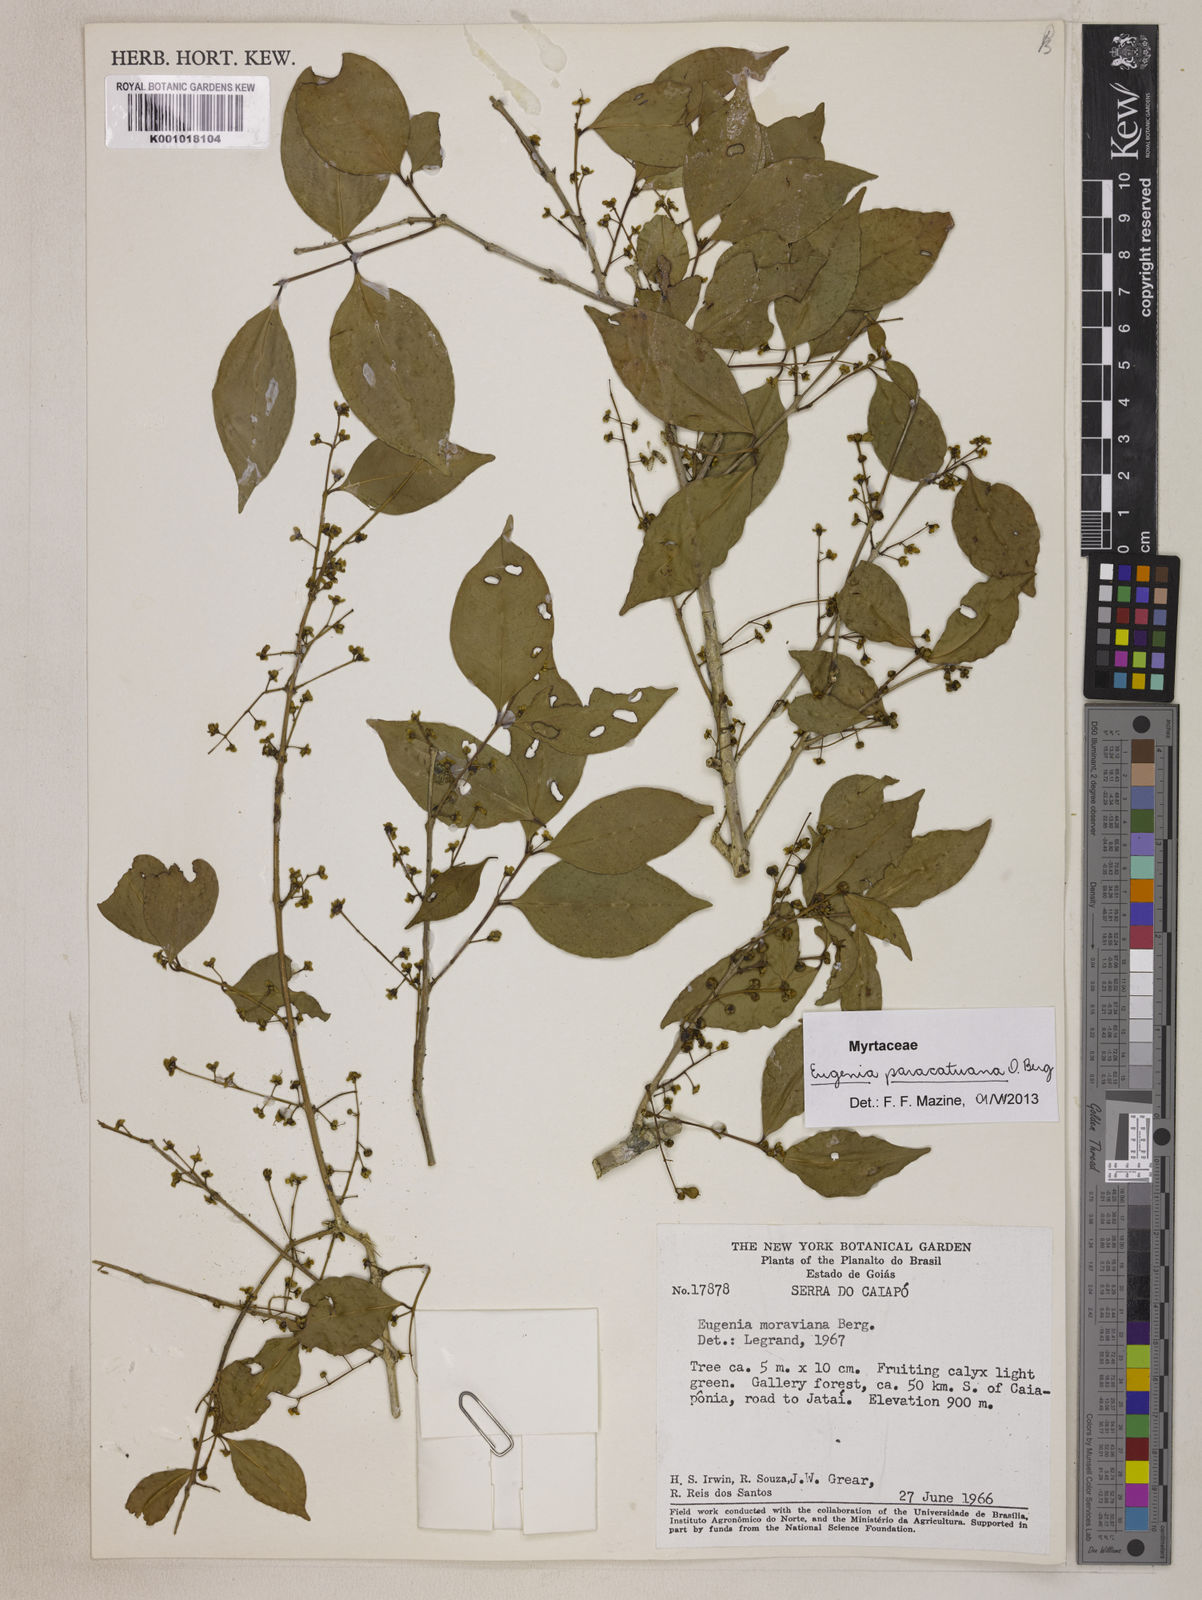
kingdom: Plantae
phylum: Tracheophyta
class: Magnoliopsida
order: Myrtales
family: Myrtaceae
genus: Eugenia
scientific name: Eugenia moraviana
